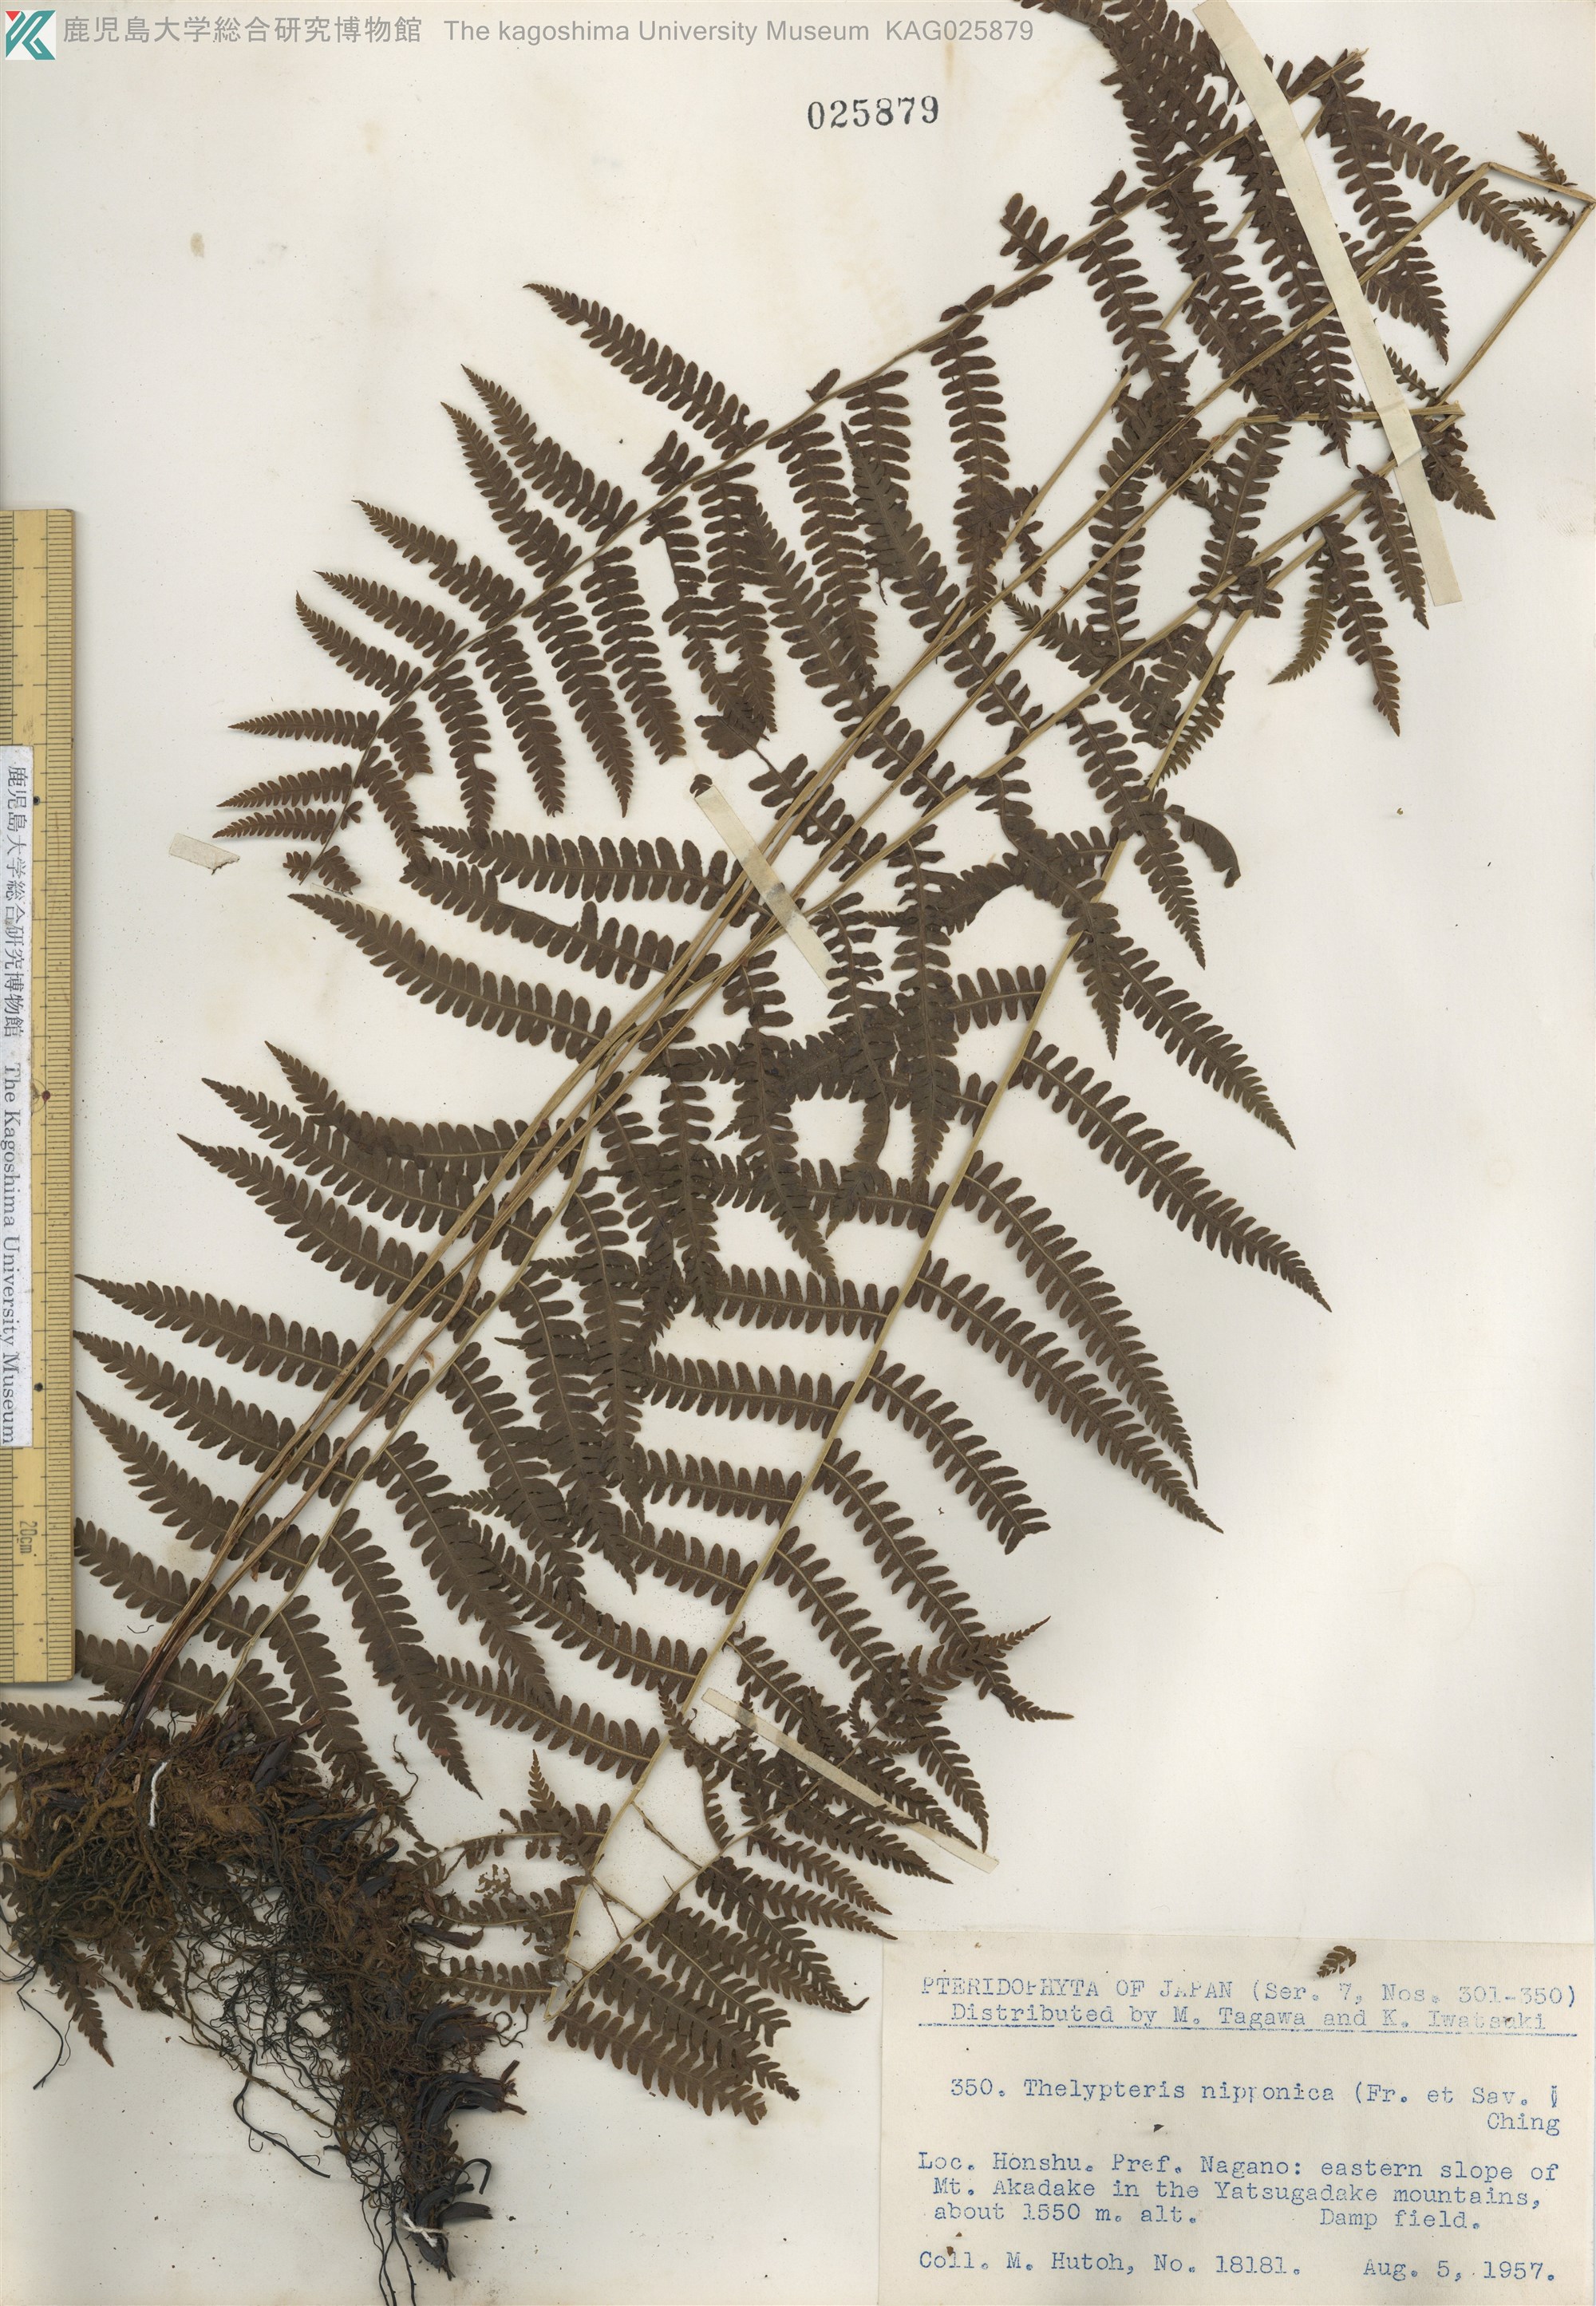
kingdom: Plantae
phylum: Tracheophyta
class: Polypodiopsida
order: Polypodiales
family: Thelypteridaceae
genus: Coryphopteris
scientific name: Coryphopteris nipponica
